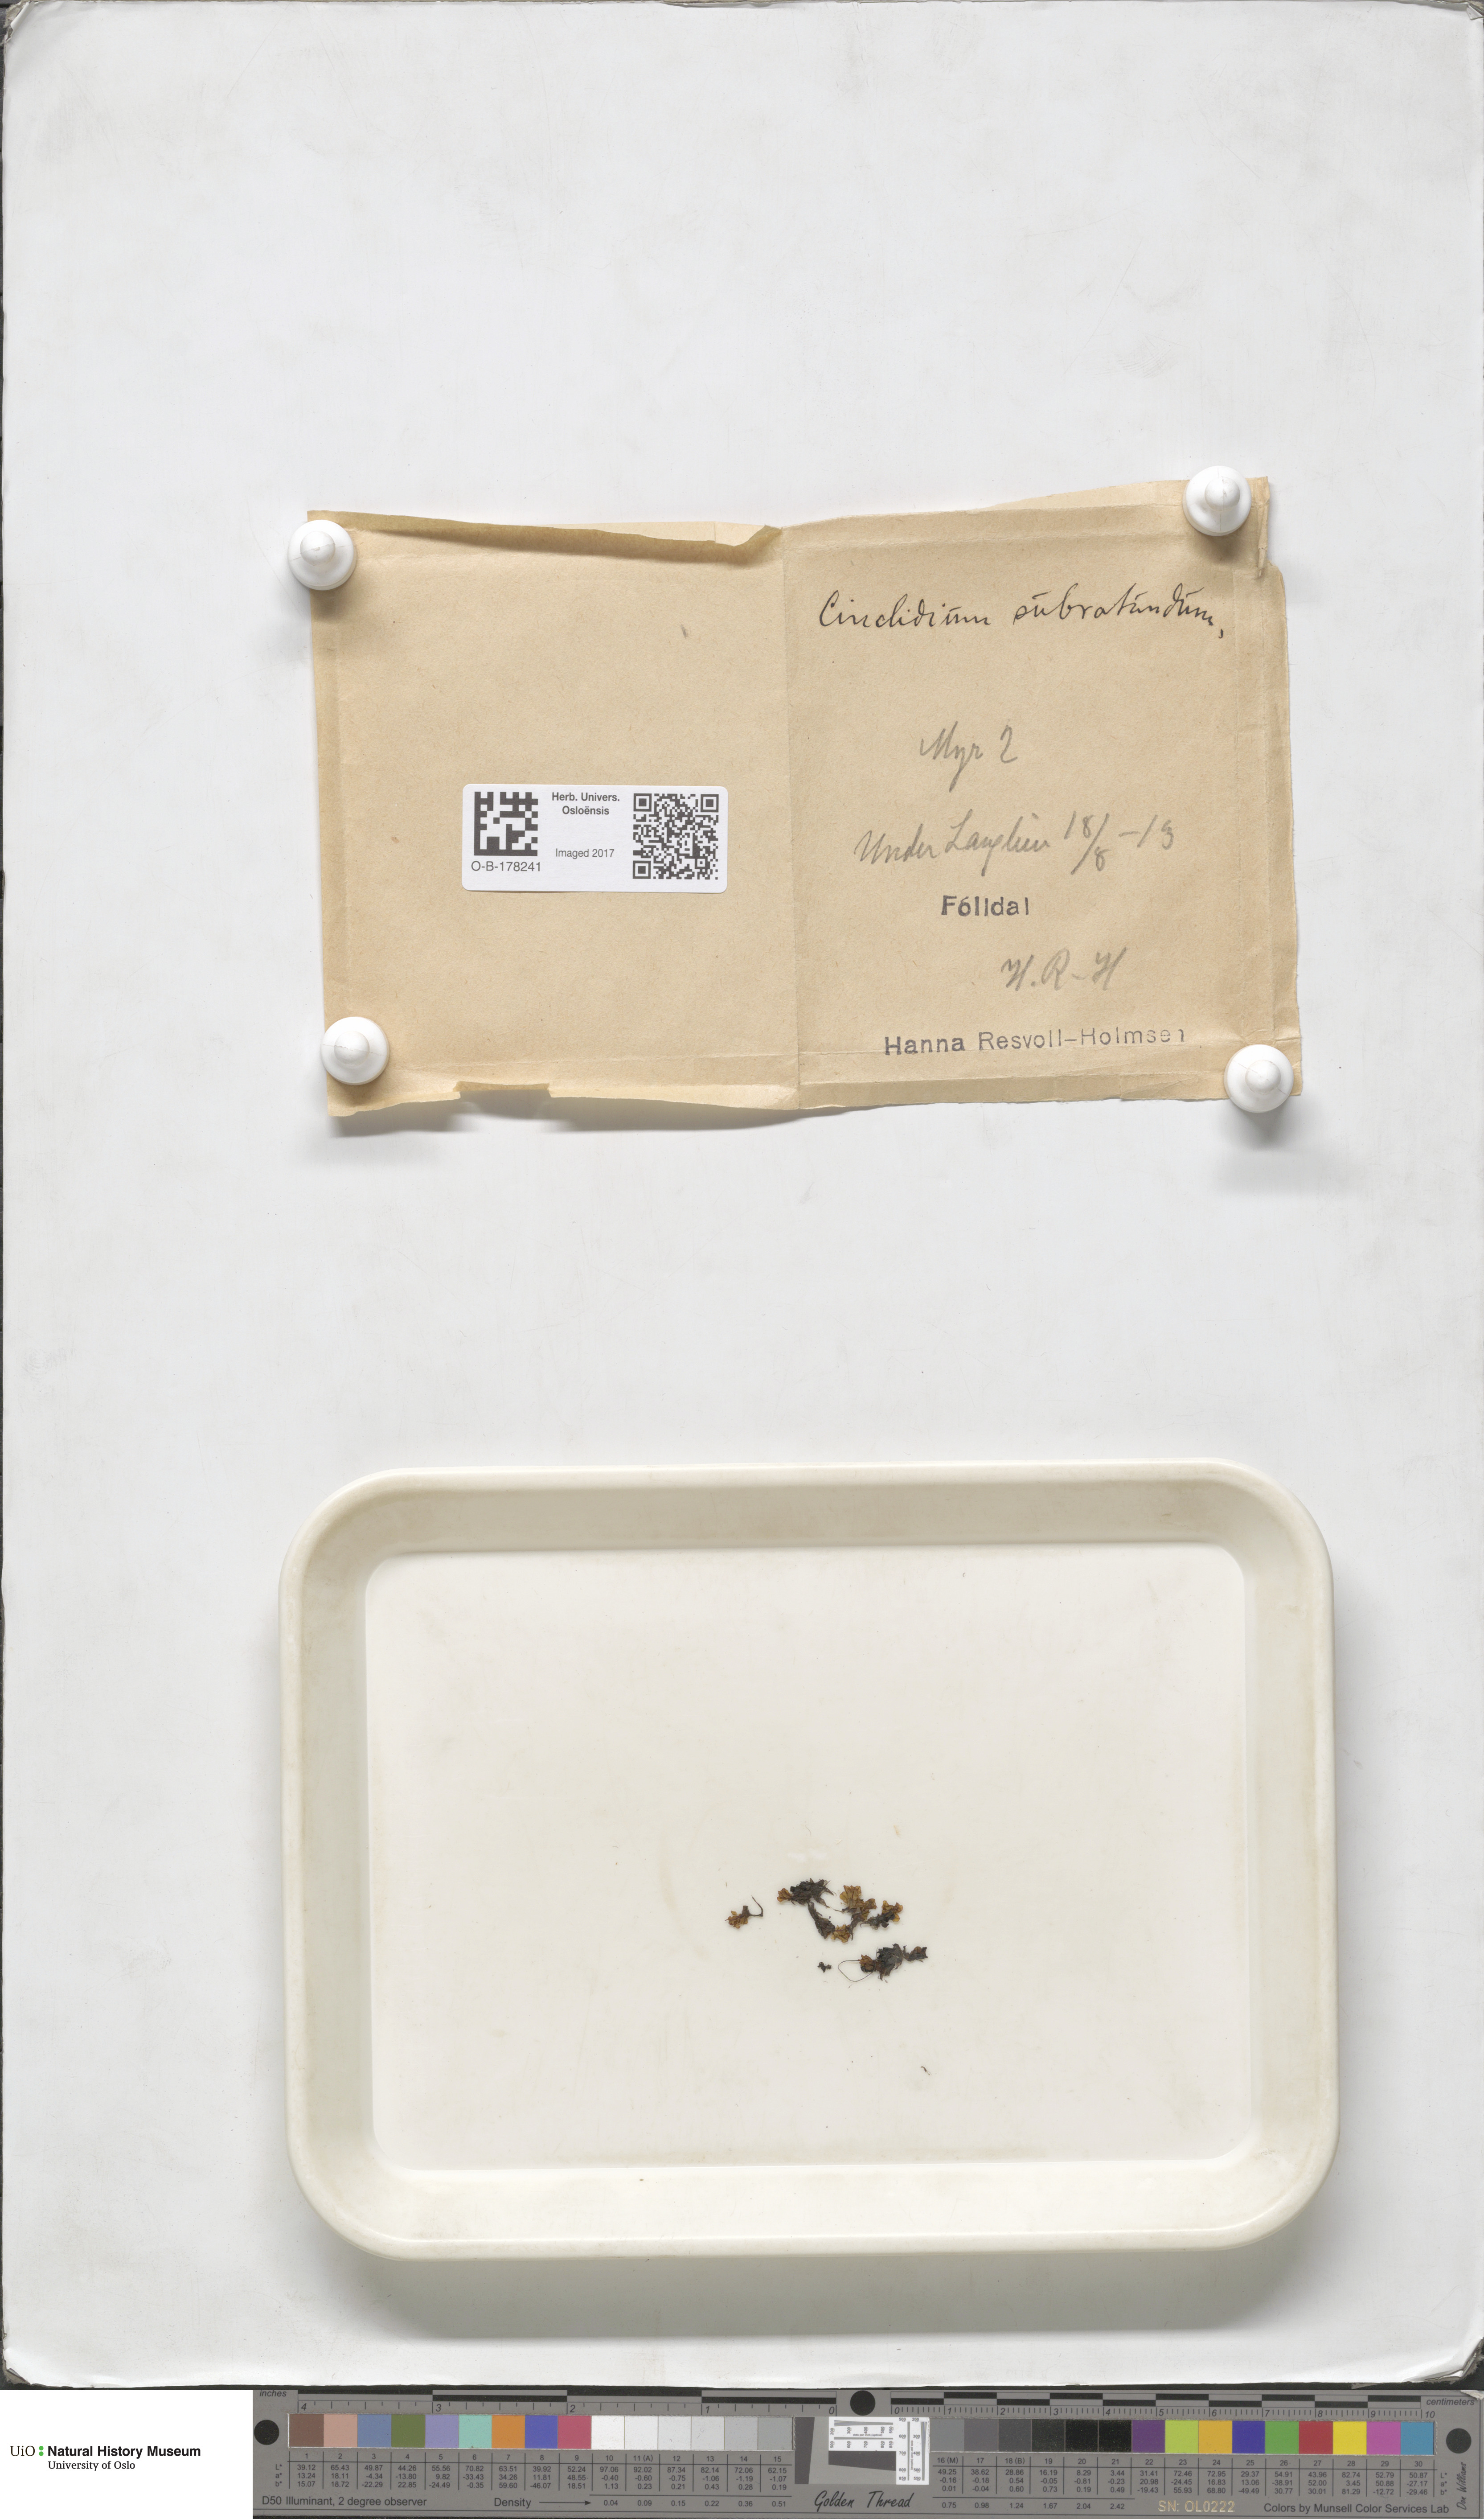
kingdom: Plantae
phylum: Bryophyta
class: Bryopsida
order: Bryales
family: Mniaceae
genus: Cinclidium
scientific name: Cinclidium subrotundum
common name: Ovate cupola moss
